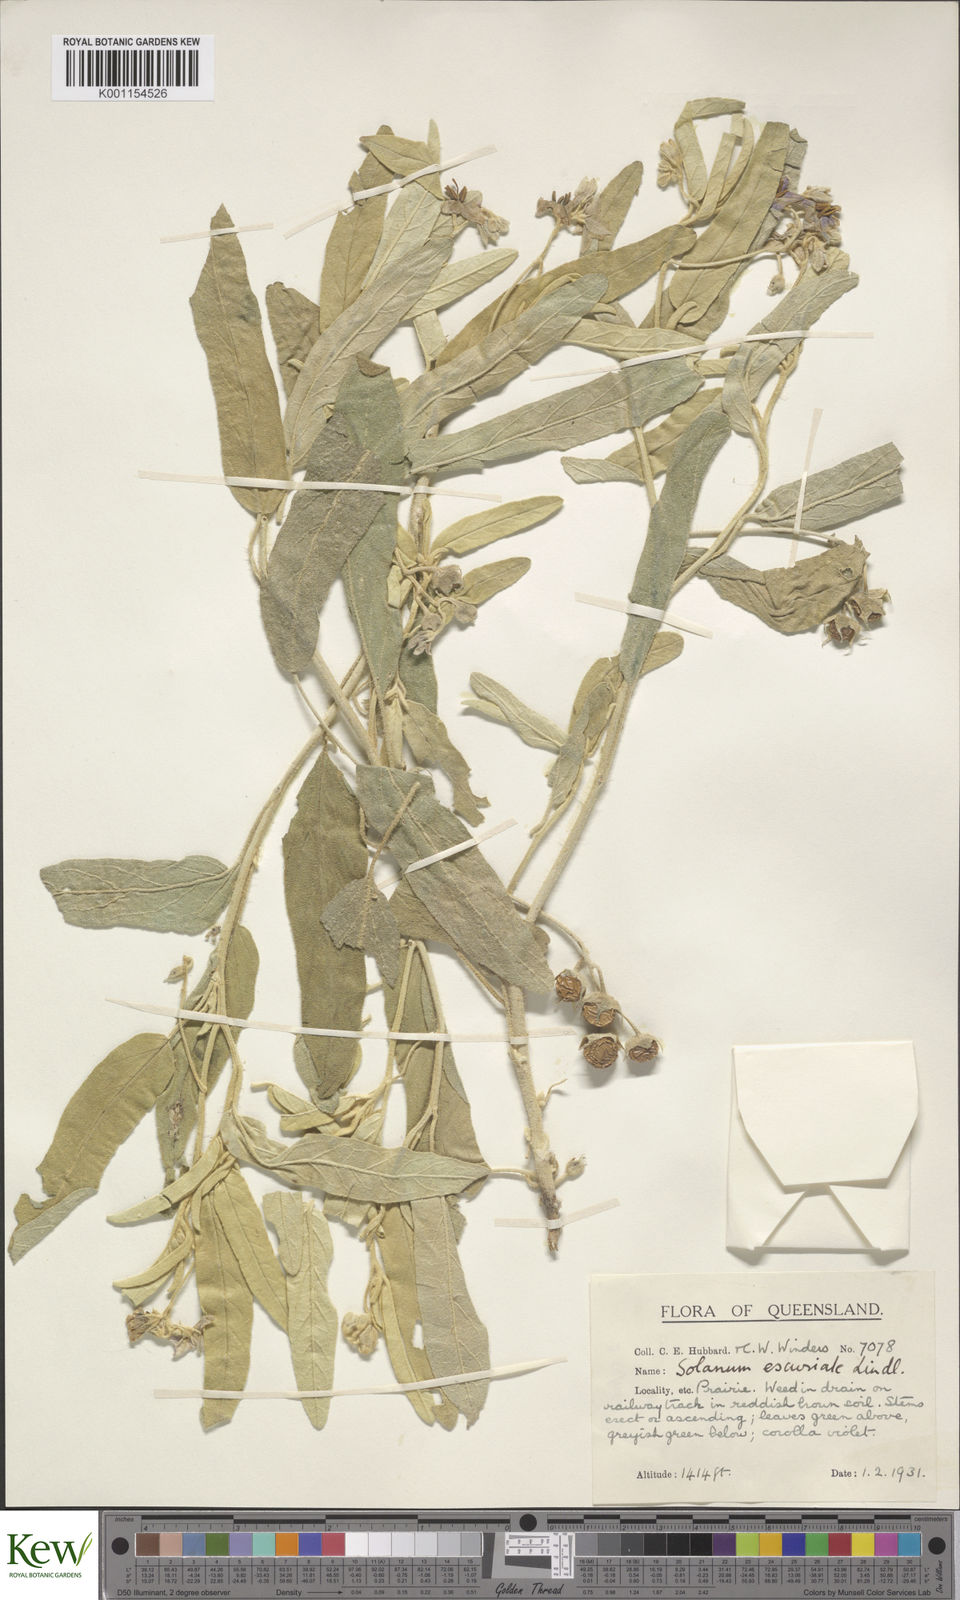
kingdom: Plantae
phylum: Tracheophyta
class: Magnoliopsida
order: Solanales
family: Solanaceae
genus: Solanum
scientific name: Solanum esuriale
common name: Wild tomato
